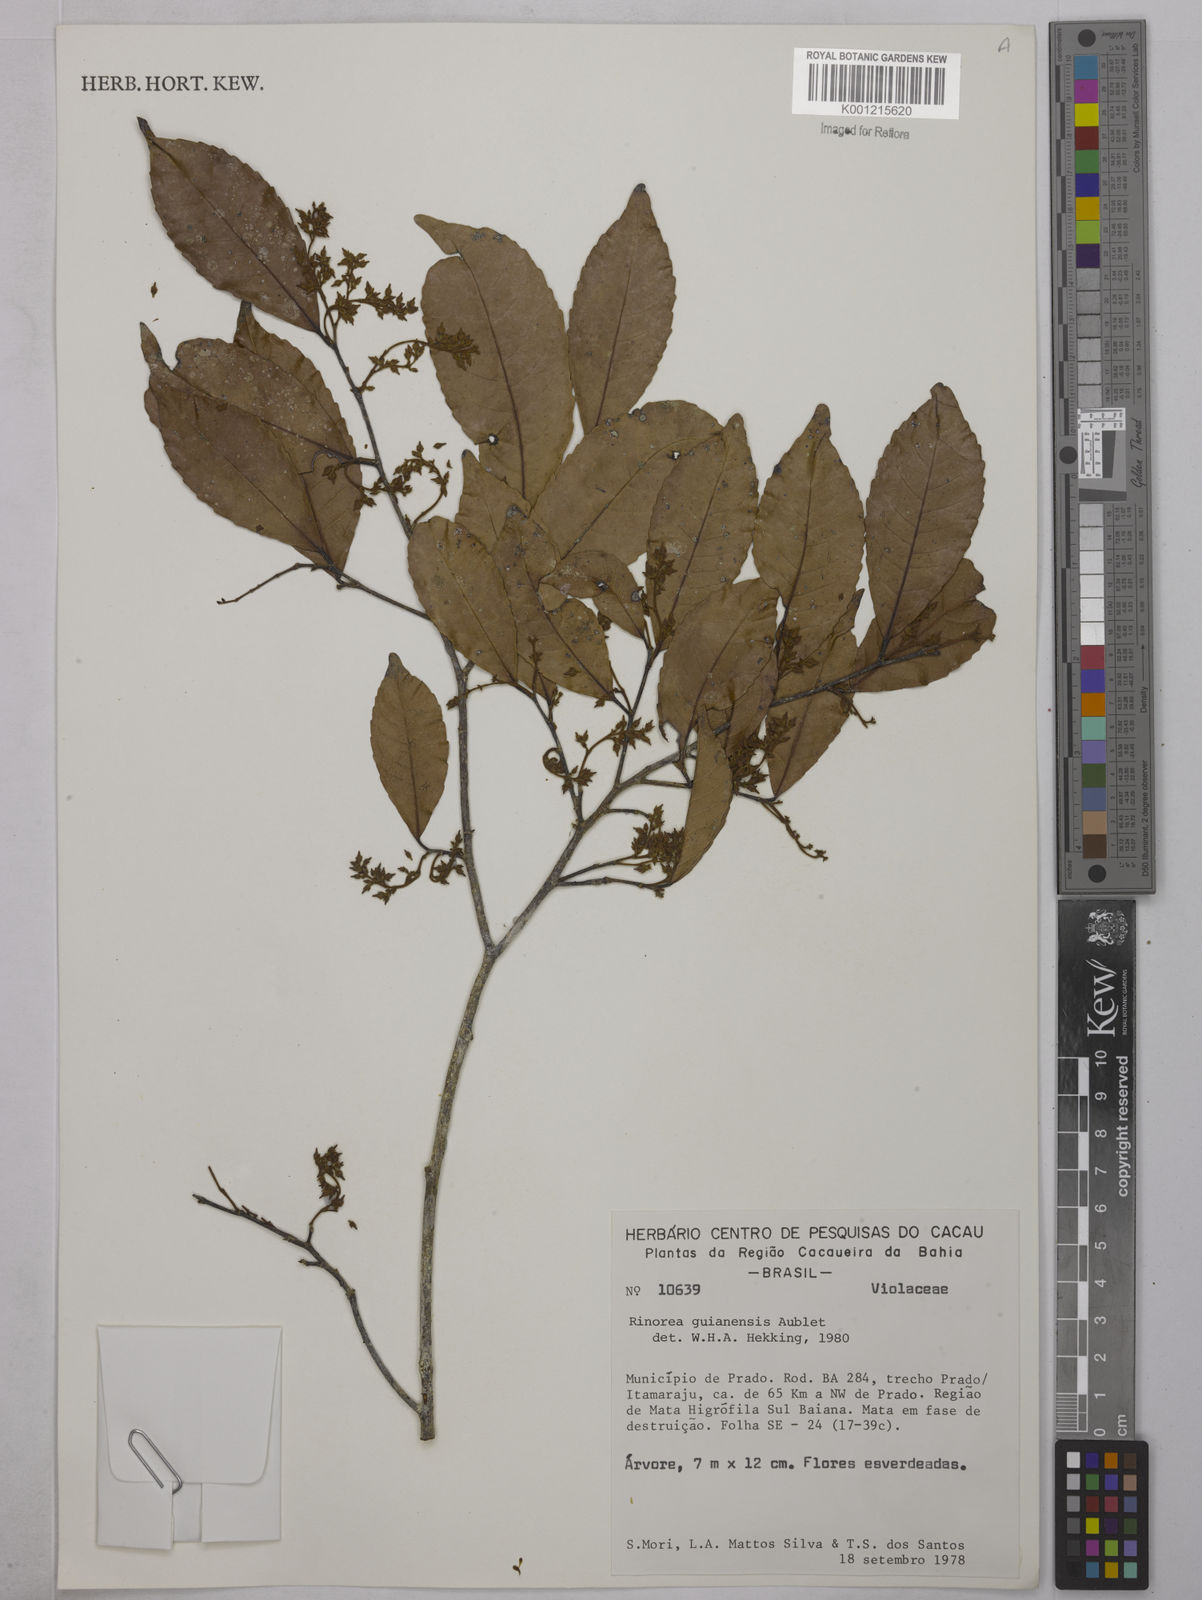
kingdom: Plantae
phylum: Tracheophyta
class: Magnoliopsida
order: Malpighiales
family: Violaceae
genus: Rinorea
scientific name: Rinorea guianensis
